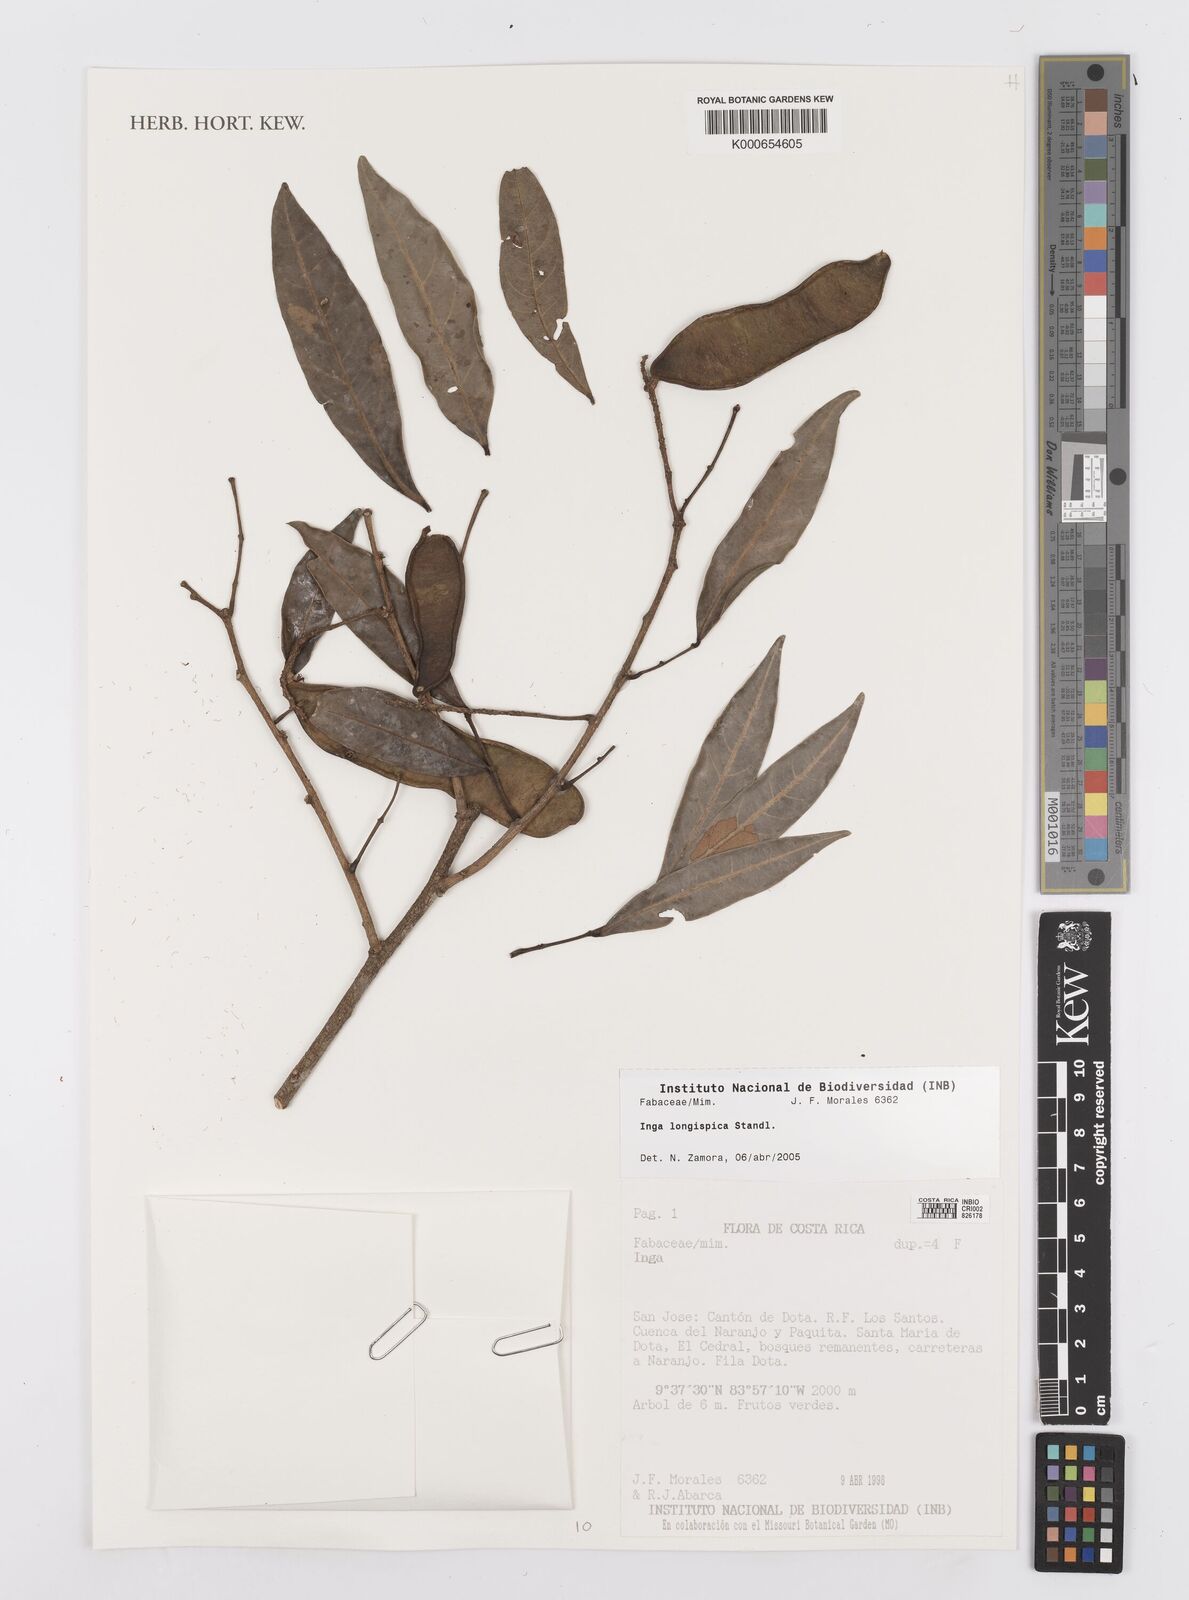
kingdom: Plantae
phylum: Tracheophyta
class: Magnoliopsida
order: Fabales
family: Fabaceae
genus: Inga
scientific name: Inga longispica
